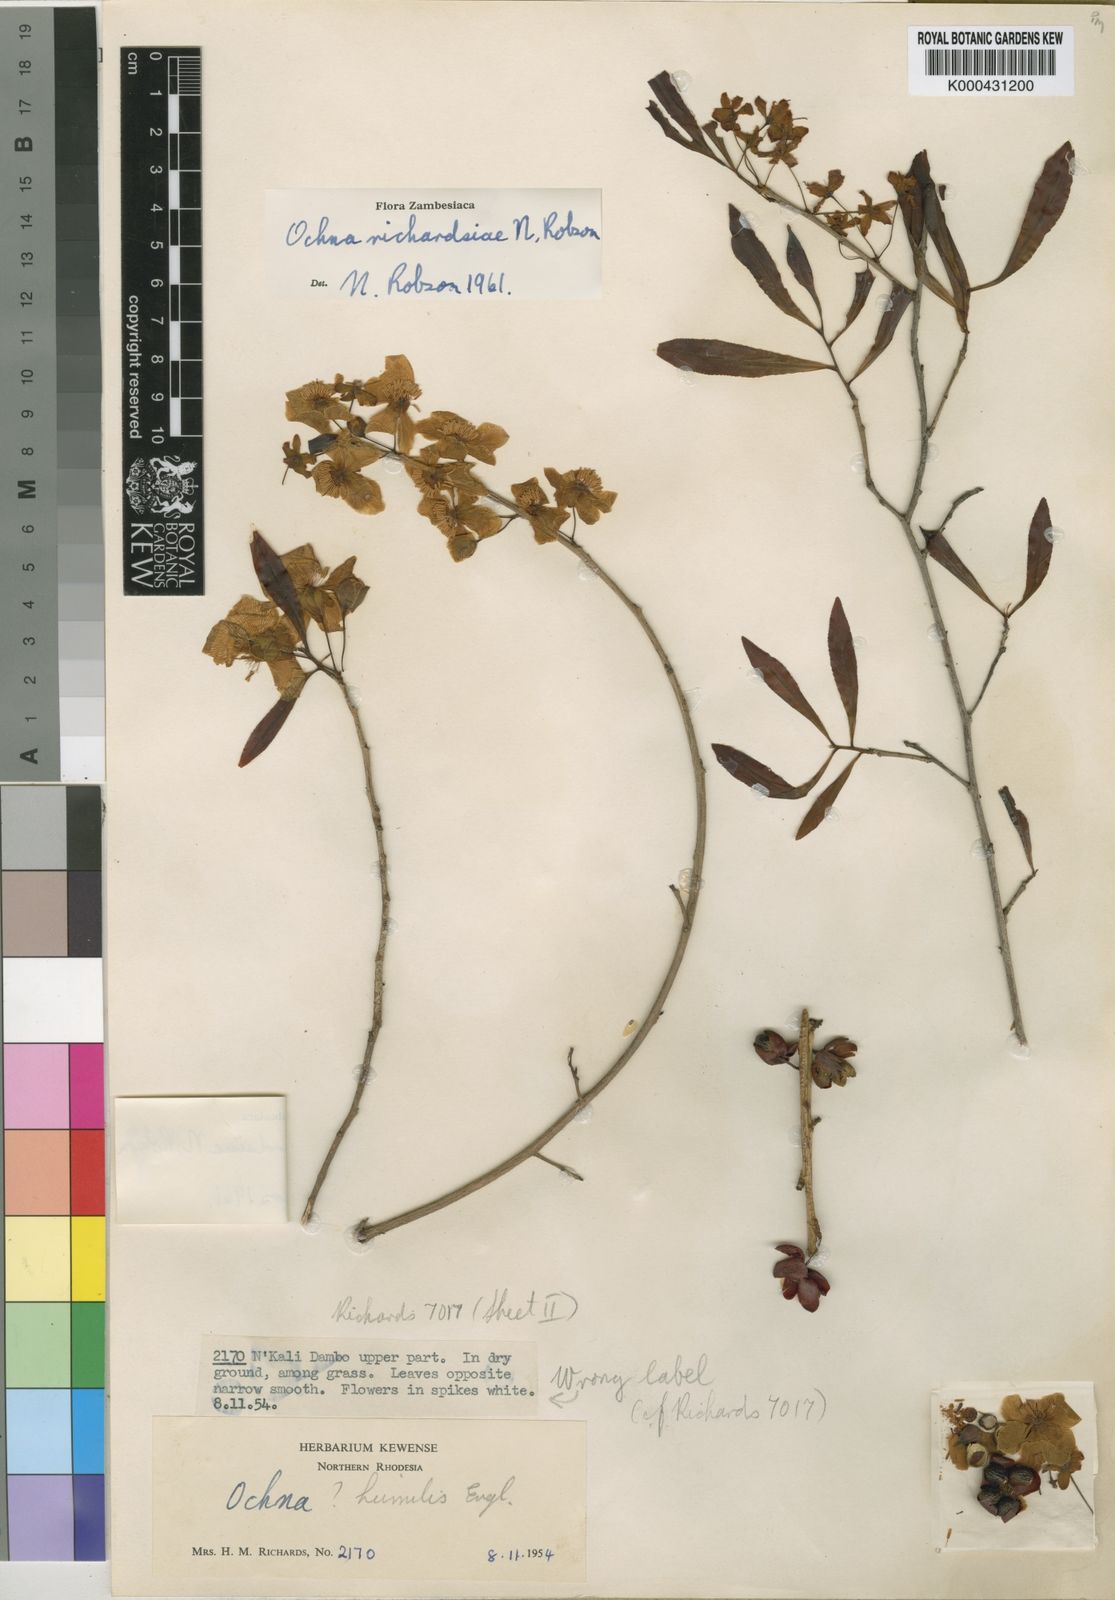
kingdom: Plantae
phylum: Tracheophyta
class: Magnoliopsida
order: Malpighiales
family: Ochnaceae
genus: Ochna
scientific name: Ochna richardsiae
